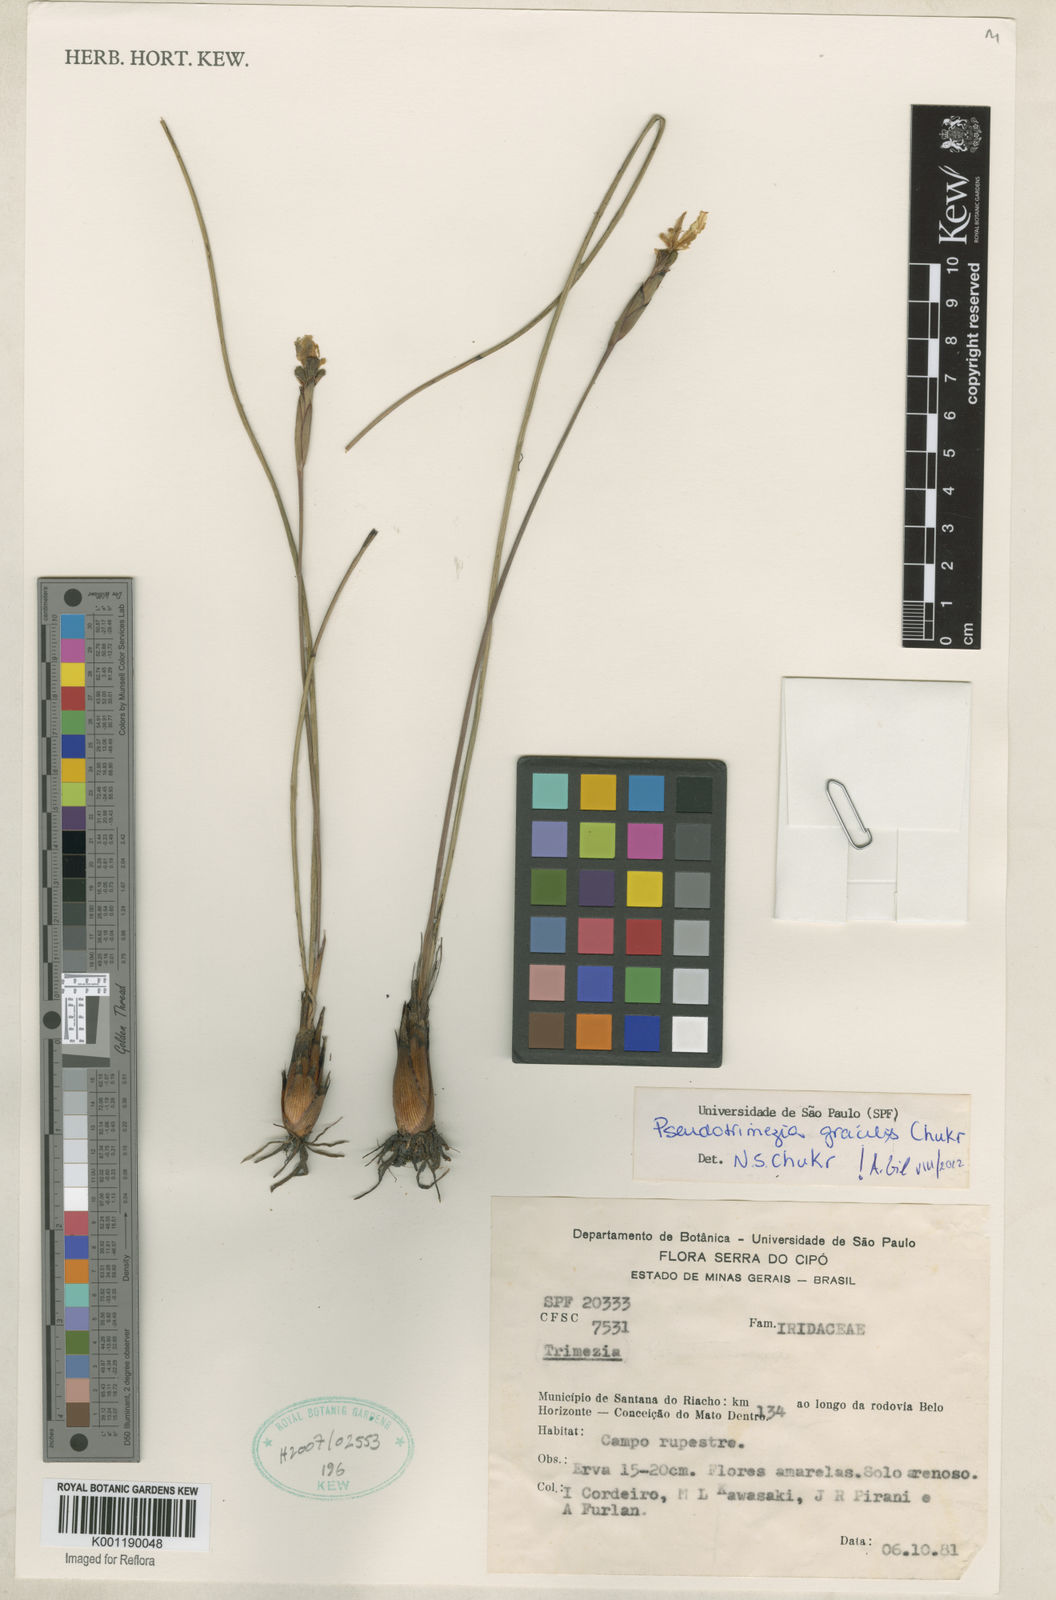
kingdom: Plantae
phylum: Tracheophyta
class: Liliopsida
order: Asparagales
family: Iridaceae
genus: Trimezia
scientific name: Trimezia concolor
